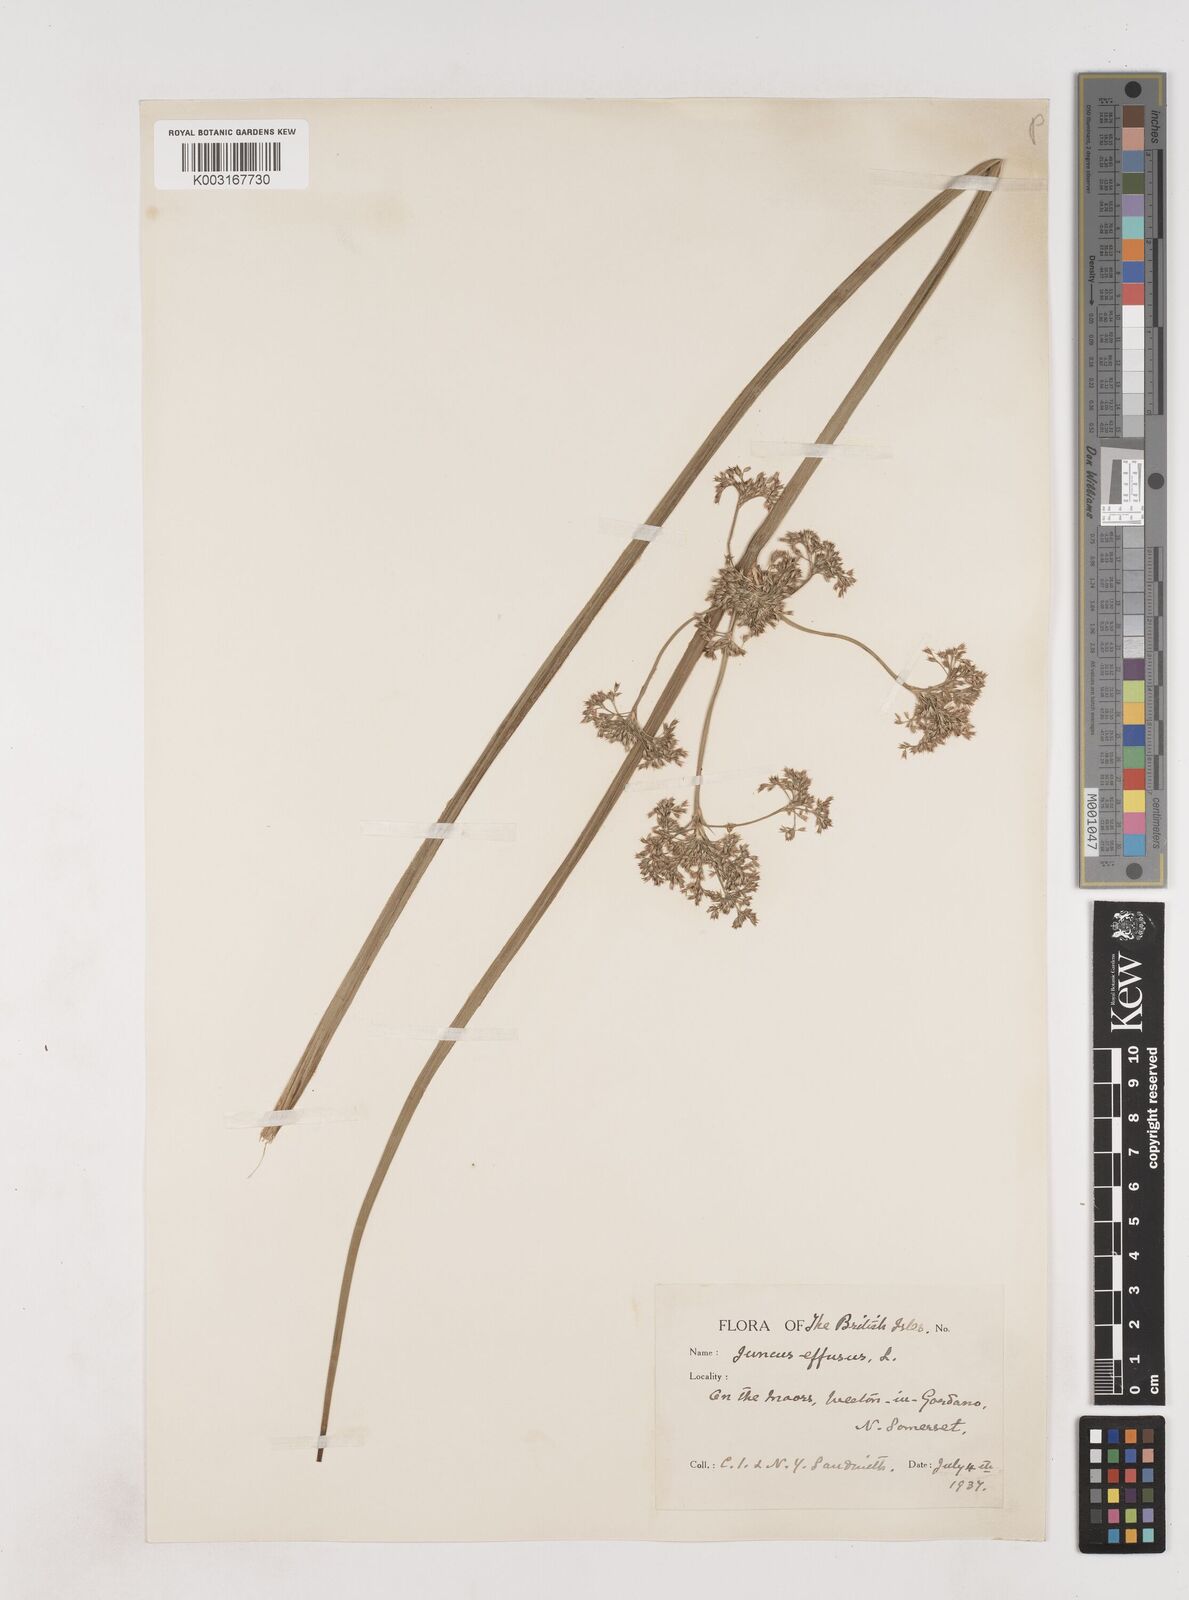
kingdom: Plantae
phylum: Tracheophyta
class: Liliopsida
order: Poales
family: Juncaceae
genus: Juncus
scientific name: Juncus effusus
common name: Soft rush
